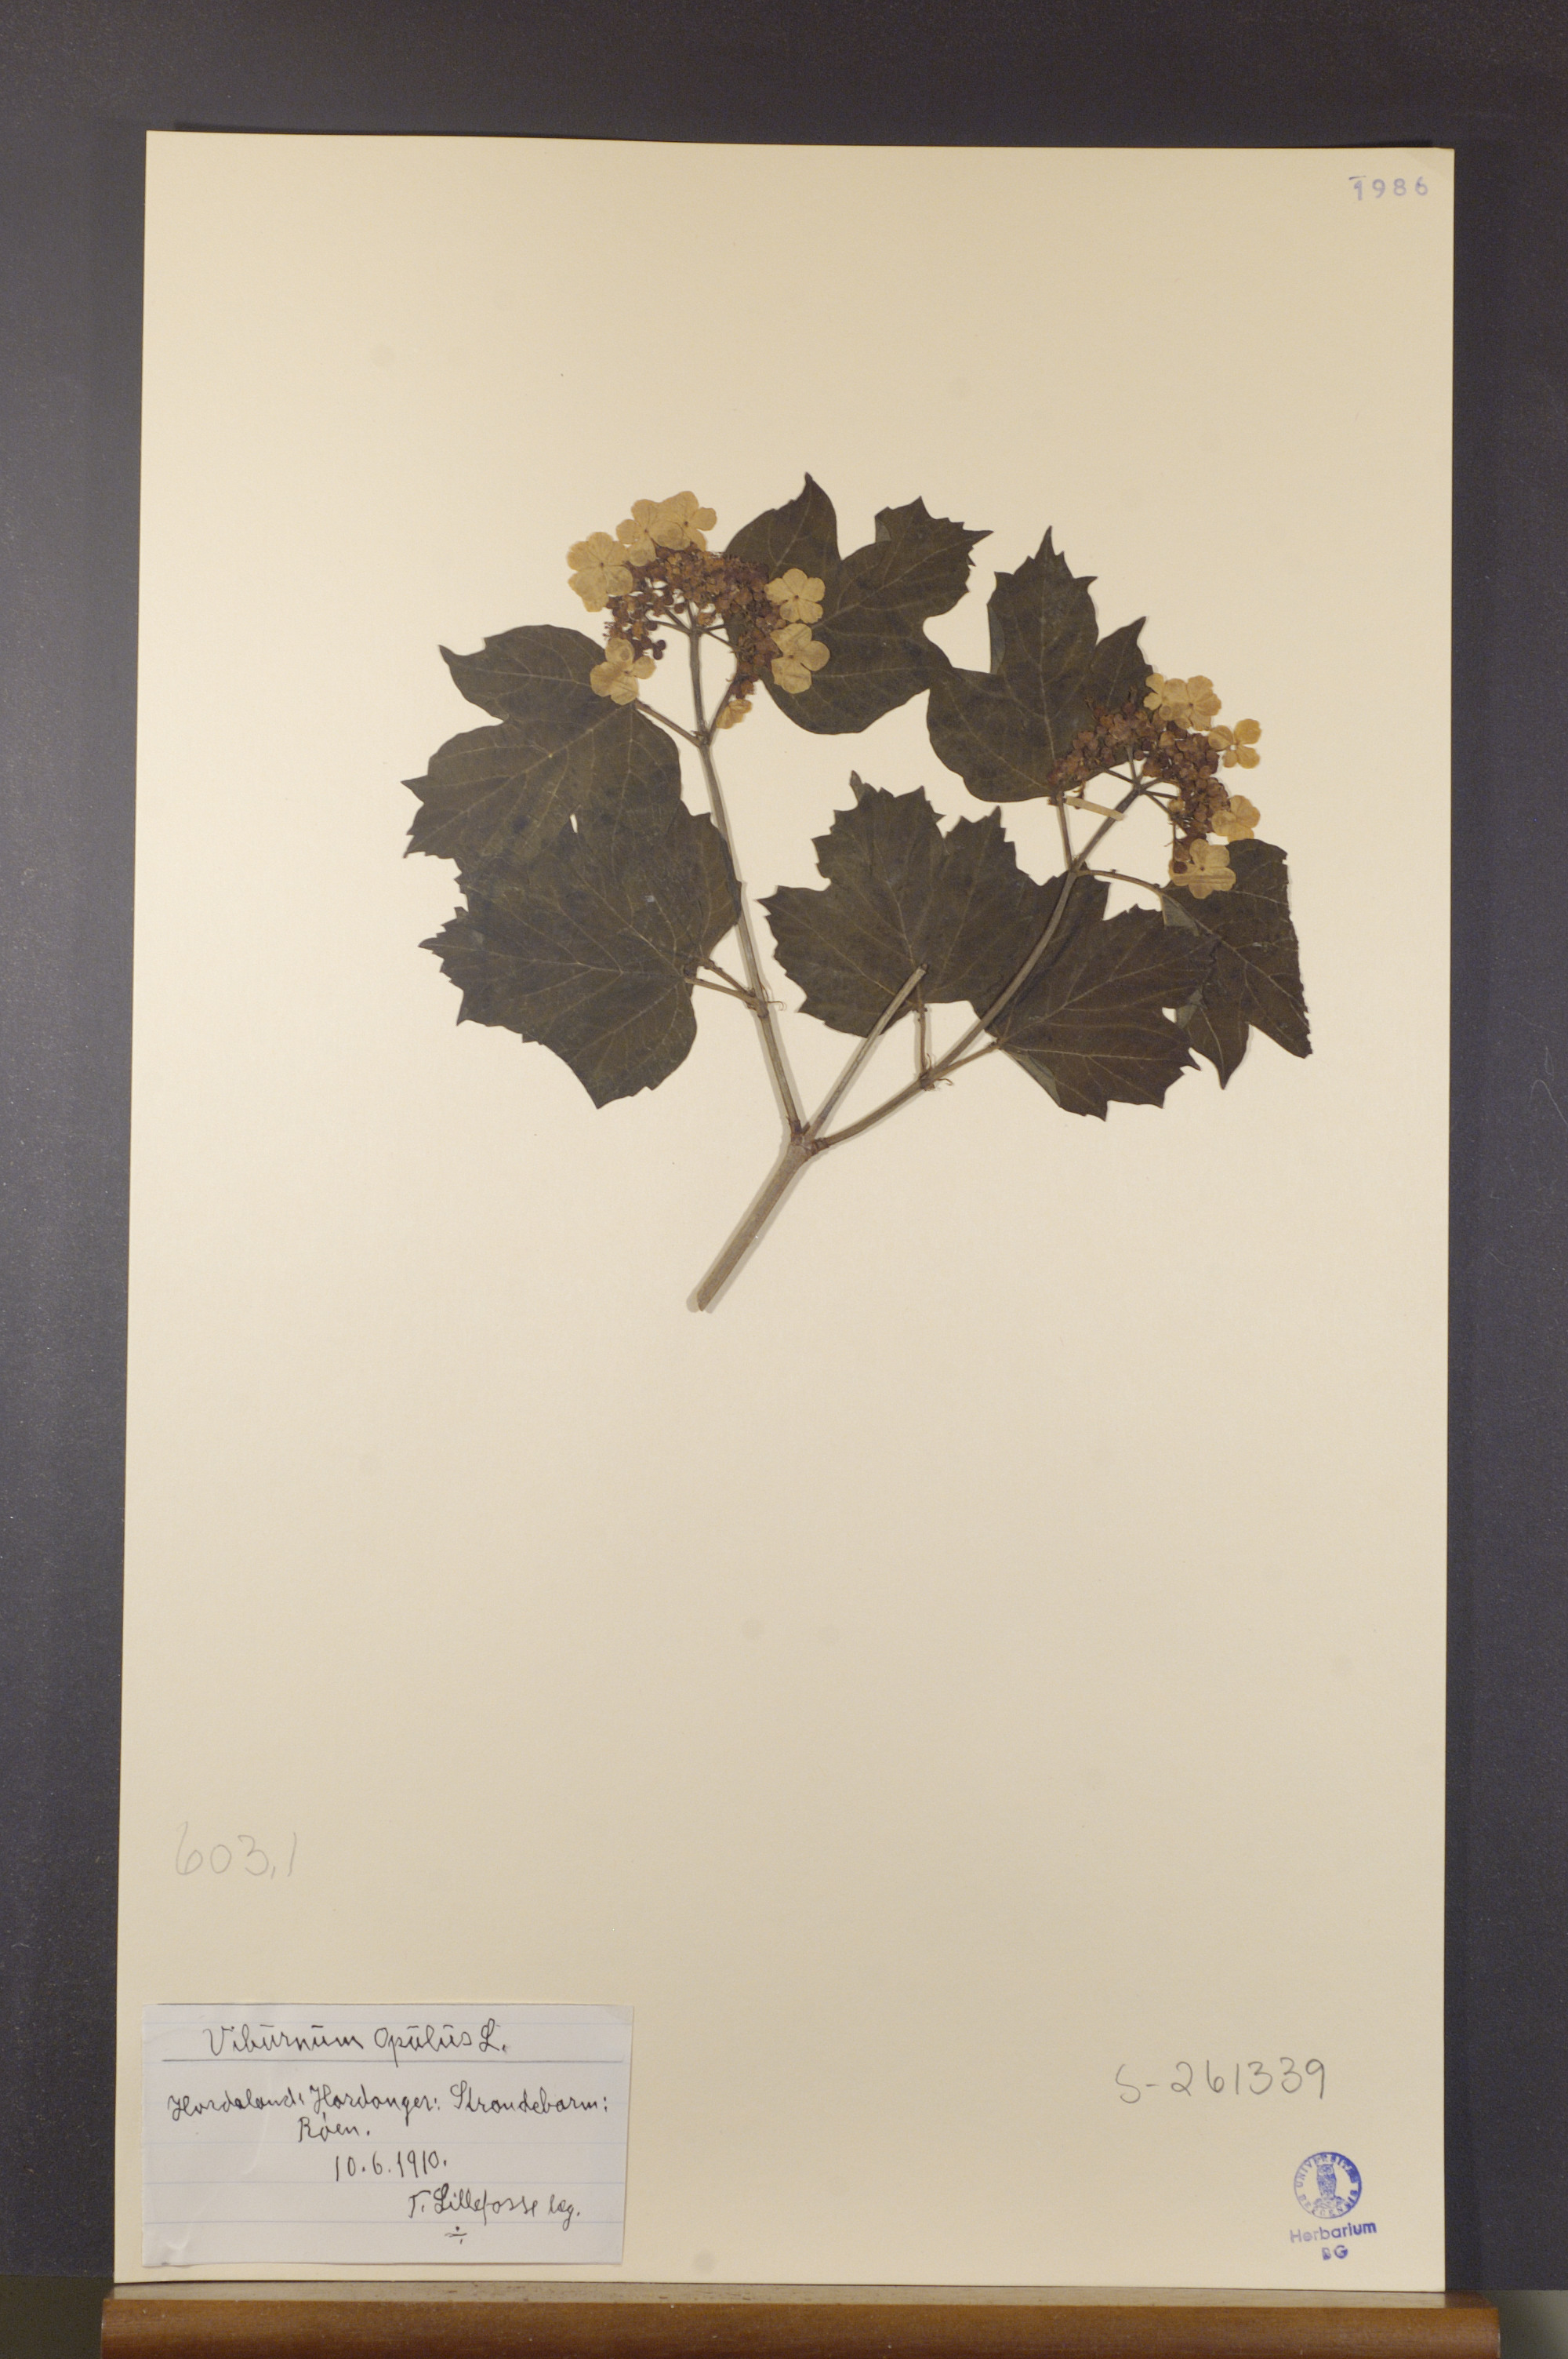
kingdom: Plantae
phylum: Tracheophyta
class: Magnoliopsida
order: Dipsacales
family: Viburnaceae
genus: Viburnum
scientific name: Viburnum opulus
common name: Guelder-rose
